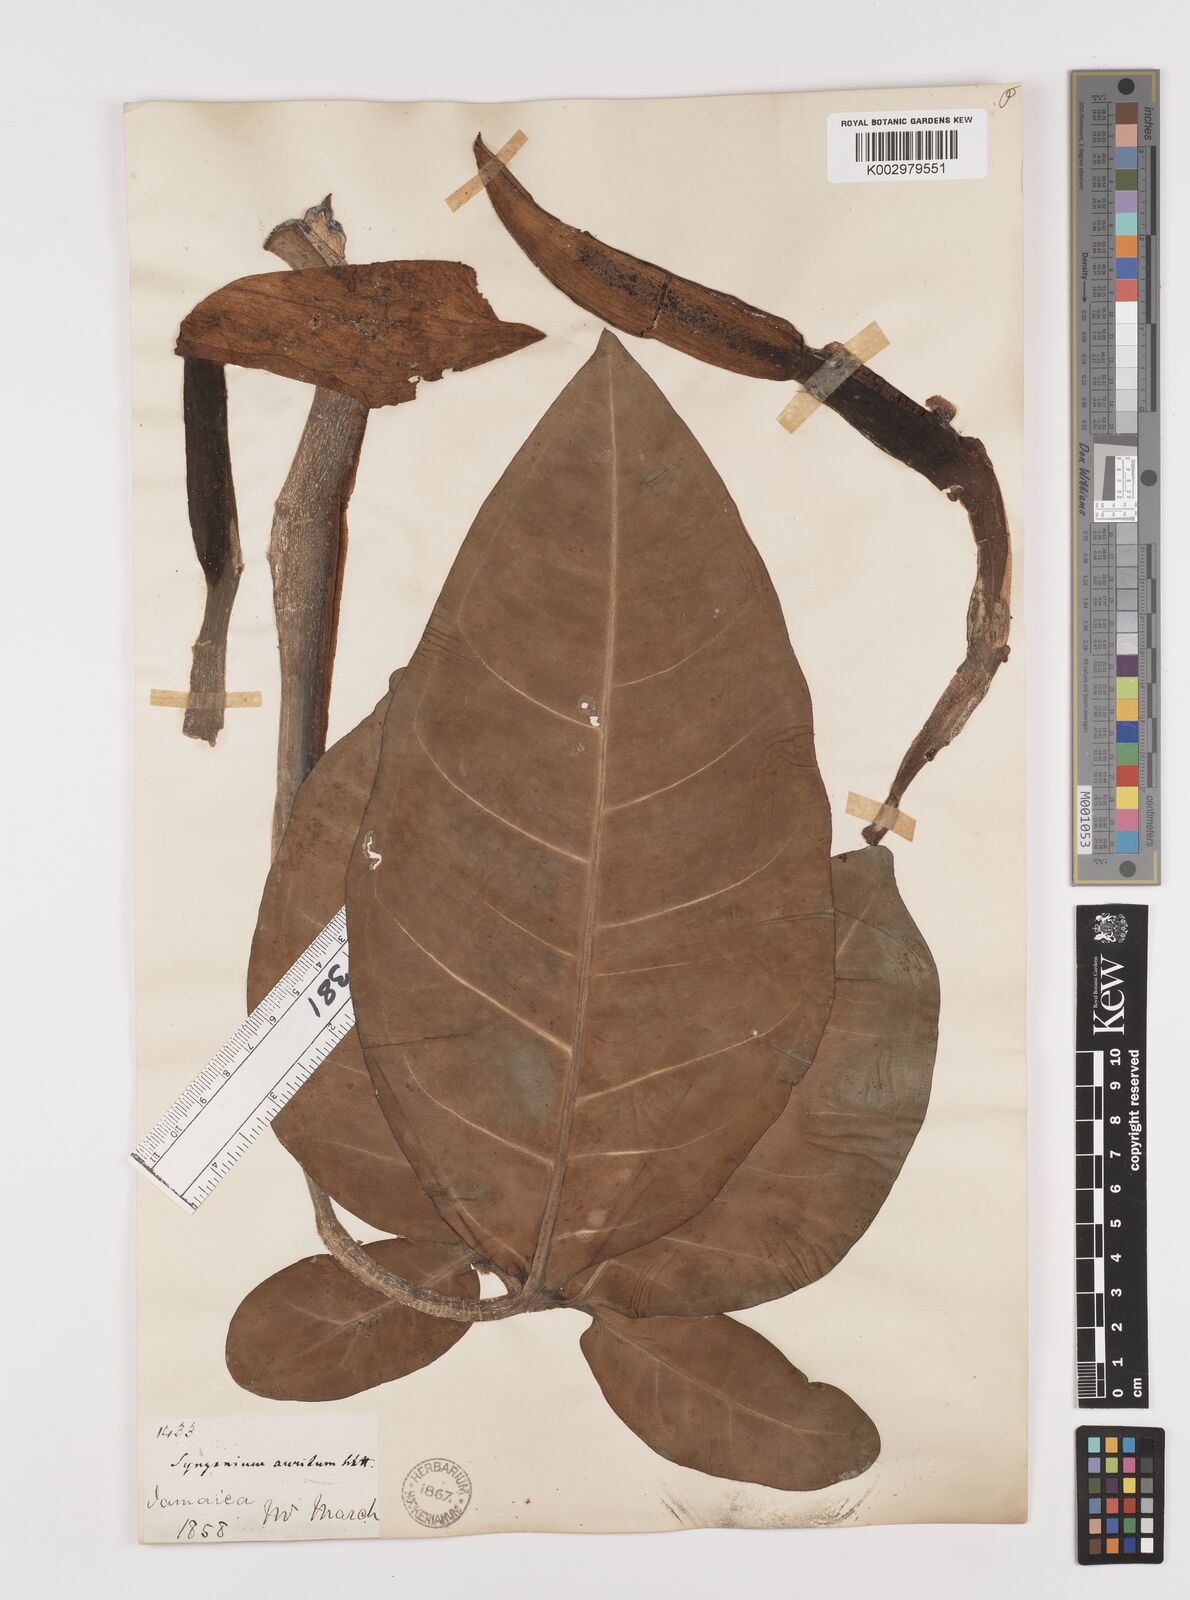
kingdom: Plantae
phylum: Tracheophyta
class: Liliopsida
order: Alismatales
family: Araceae
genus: Syngonium
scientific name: Syngonium auritum
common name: Five-fingers
